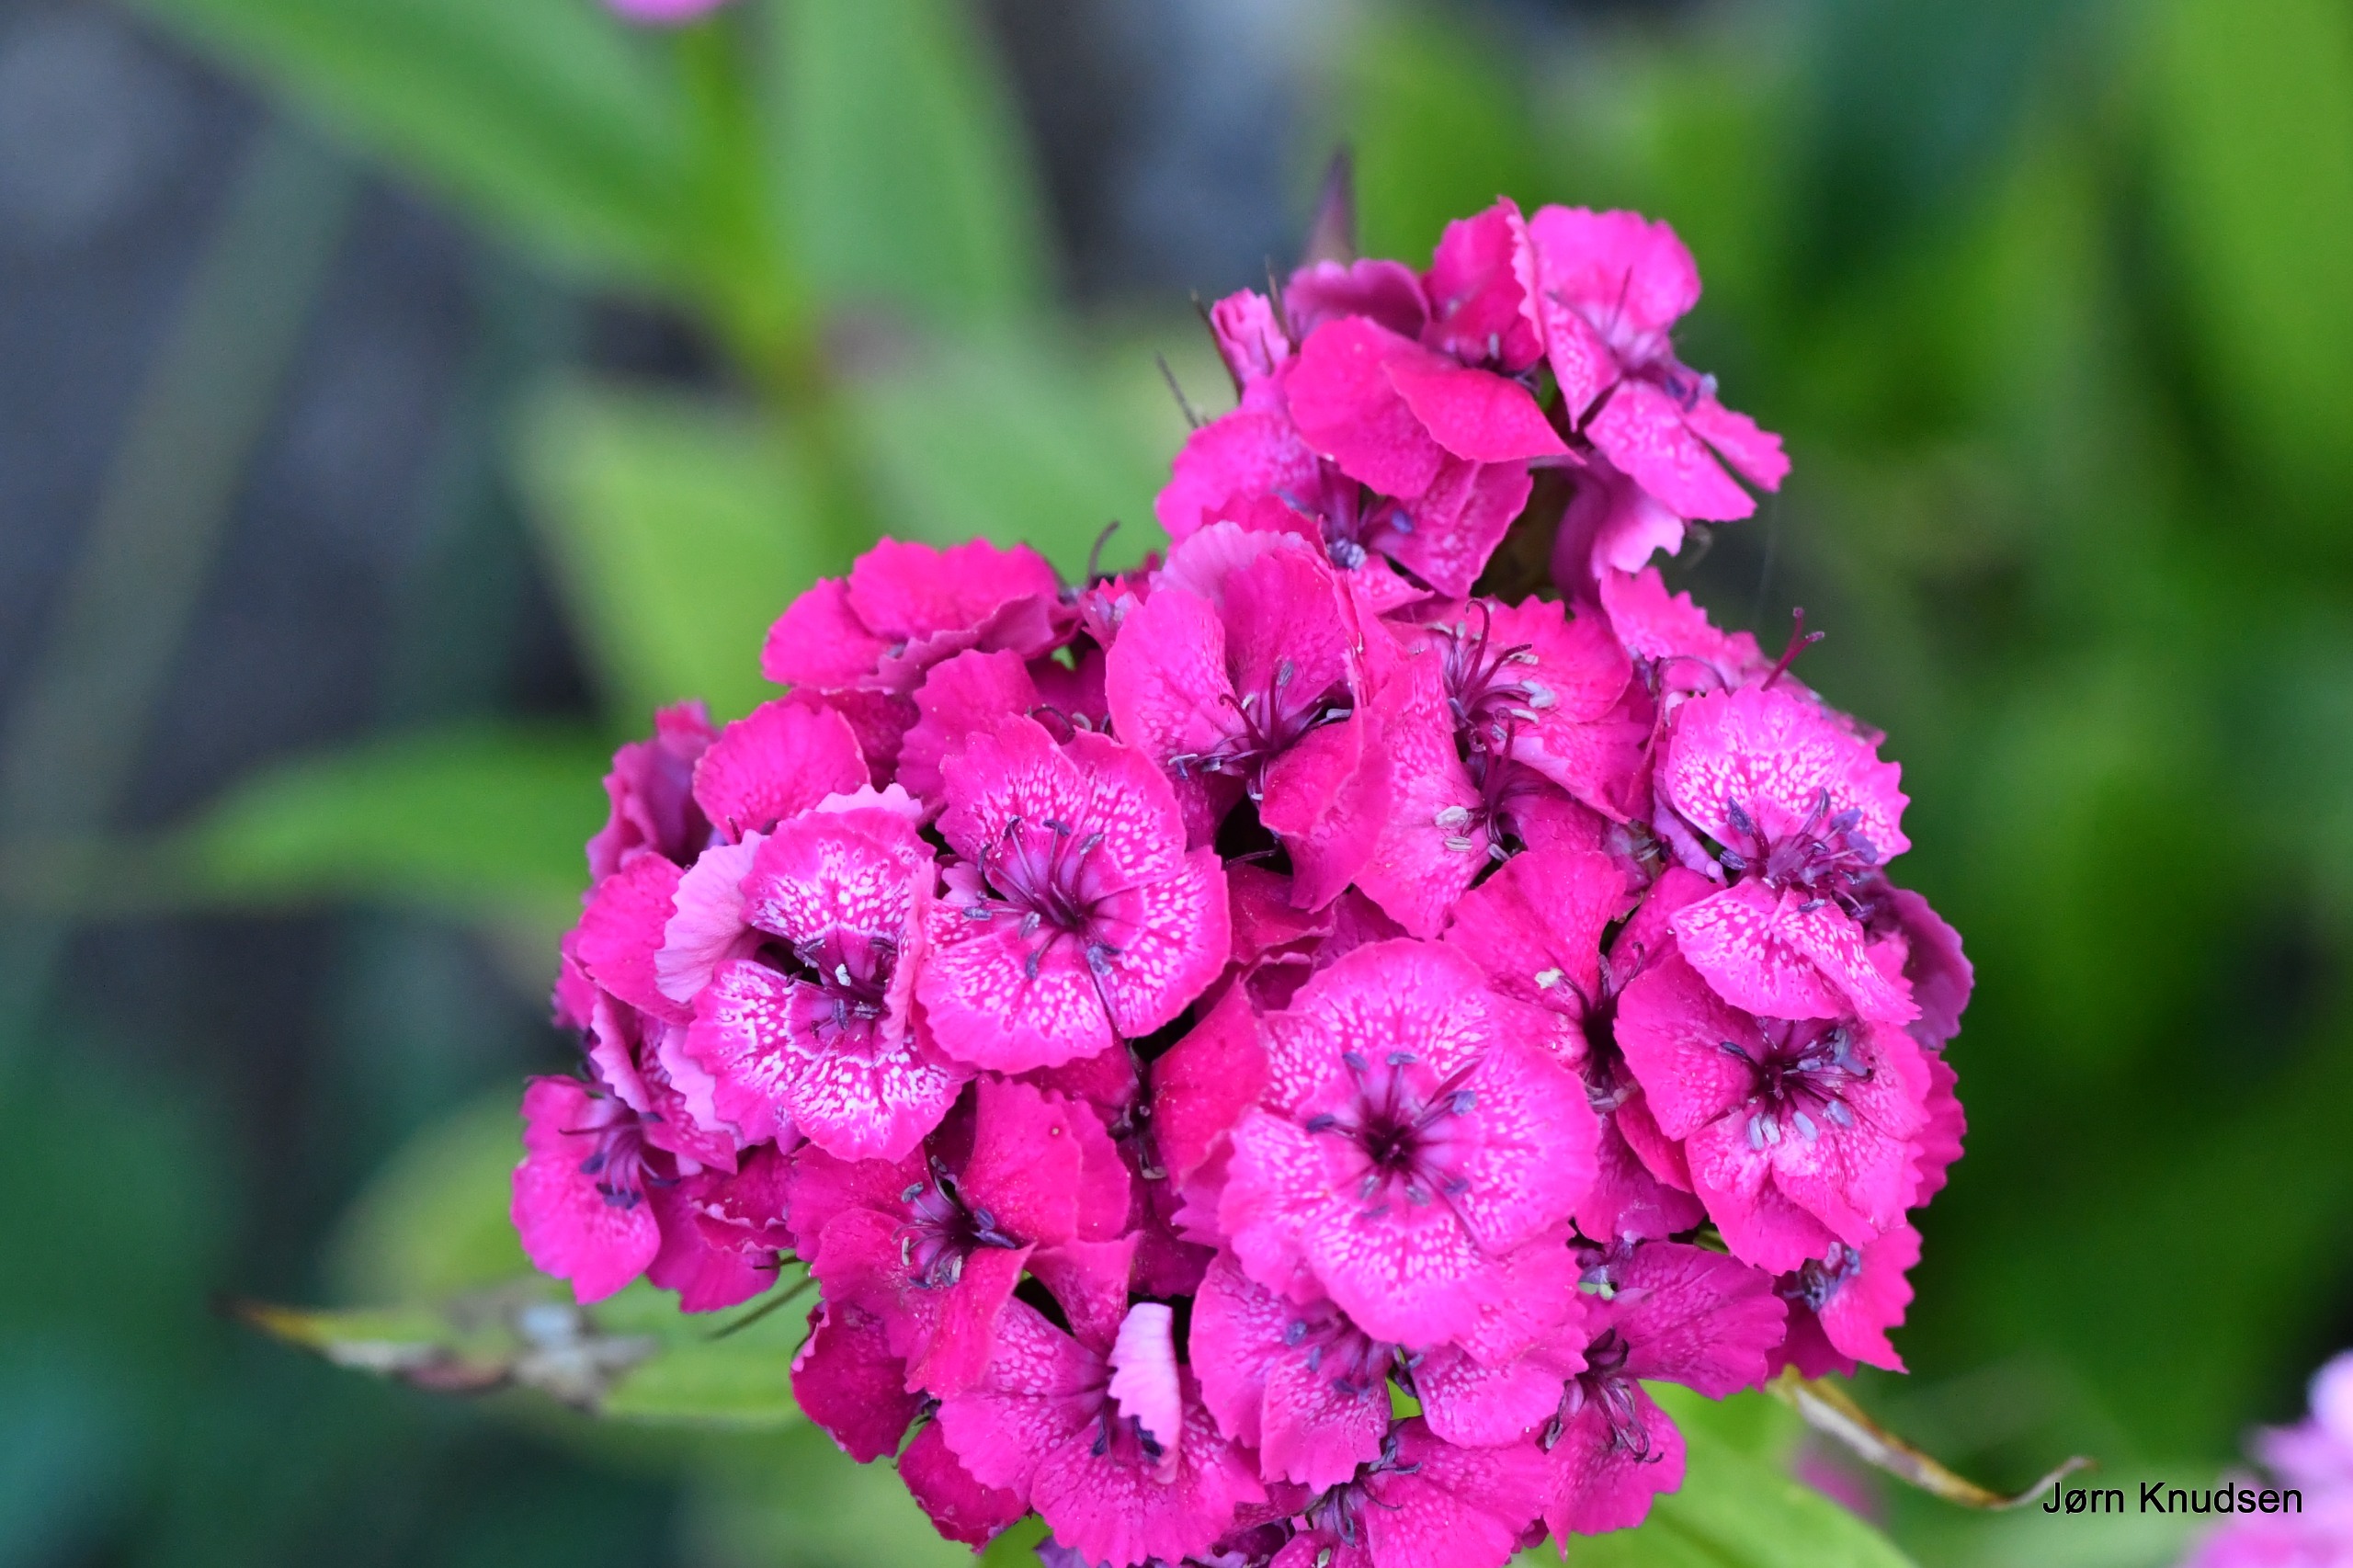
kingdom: Plantae
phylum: Tracheophyta
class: Magnoliopsida
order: Caryophyllales
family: Caryophyllaceae
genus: Dianthus
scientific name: Dianthus barbatus
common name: Studenter-nellike
